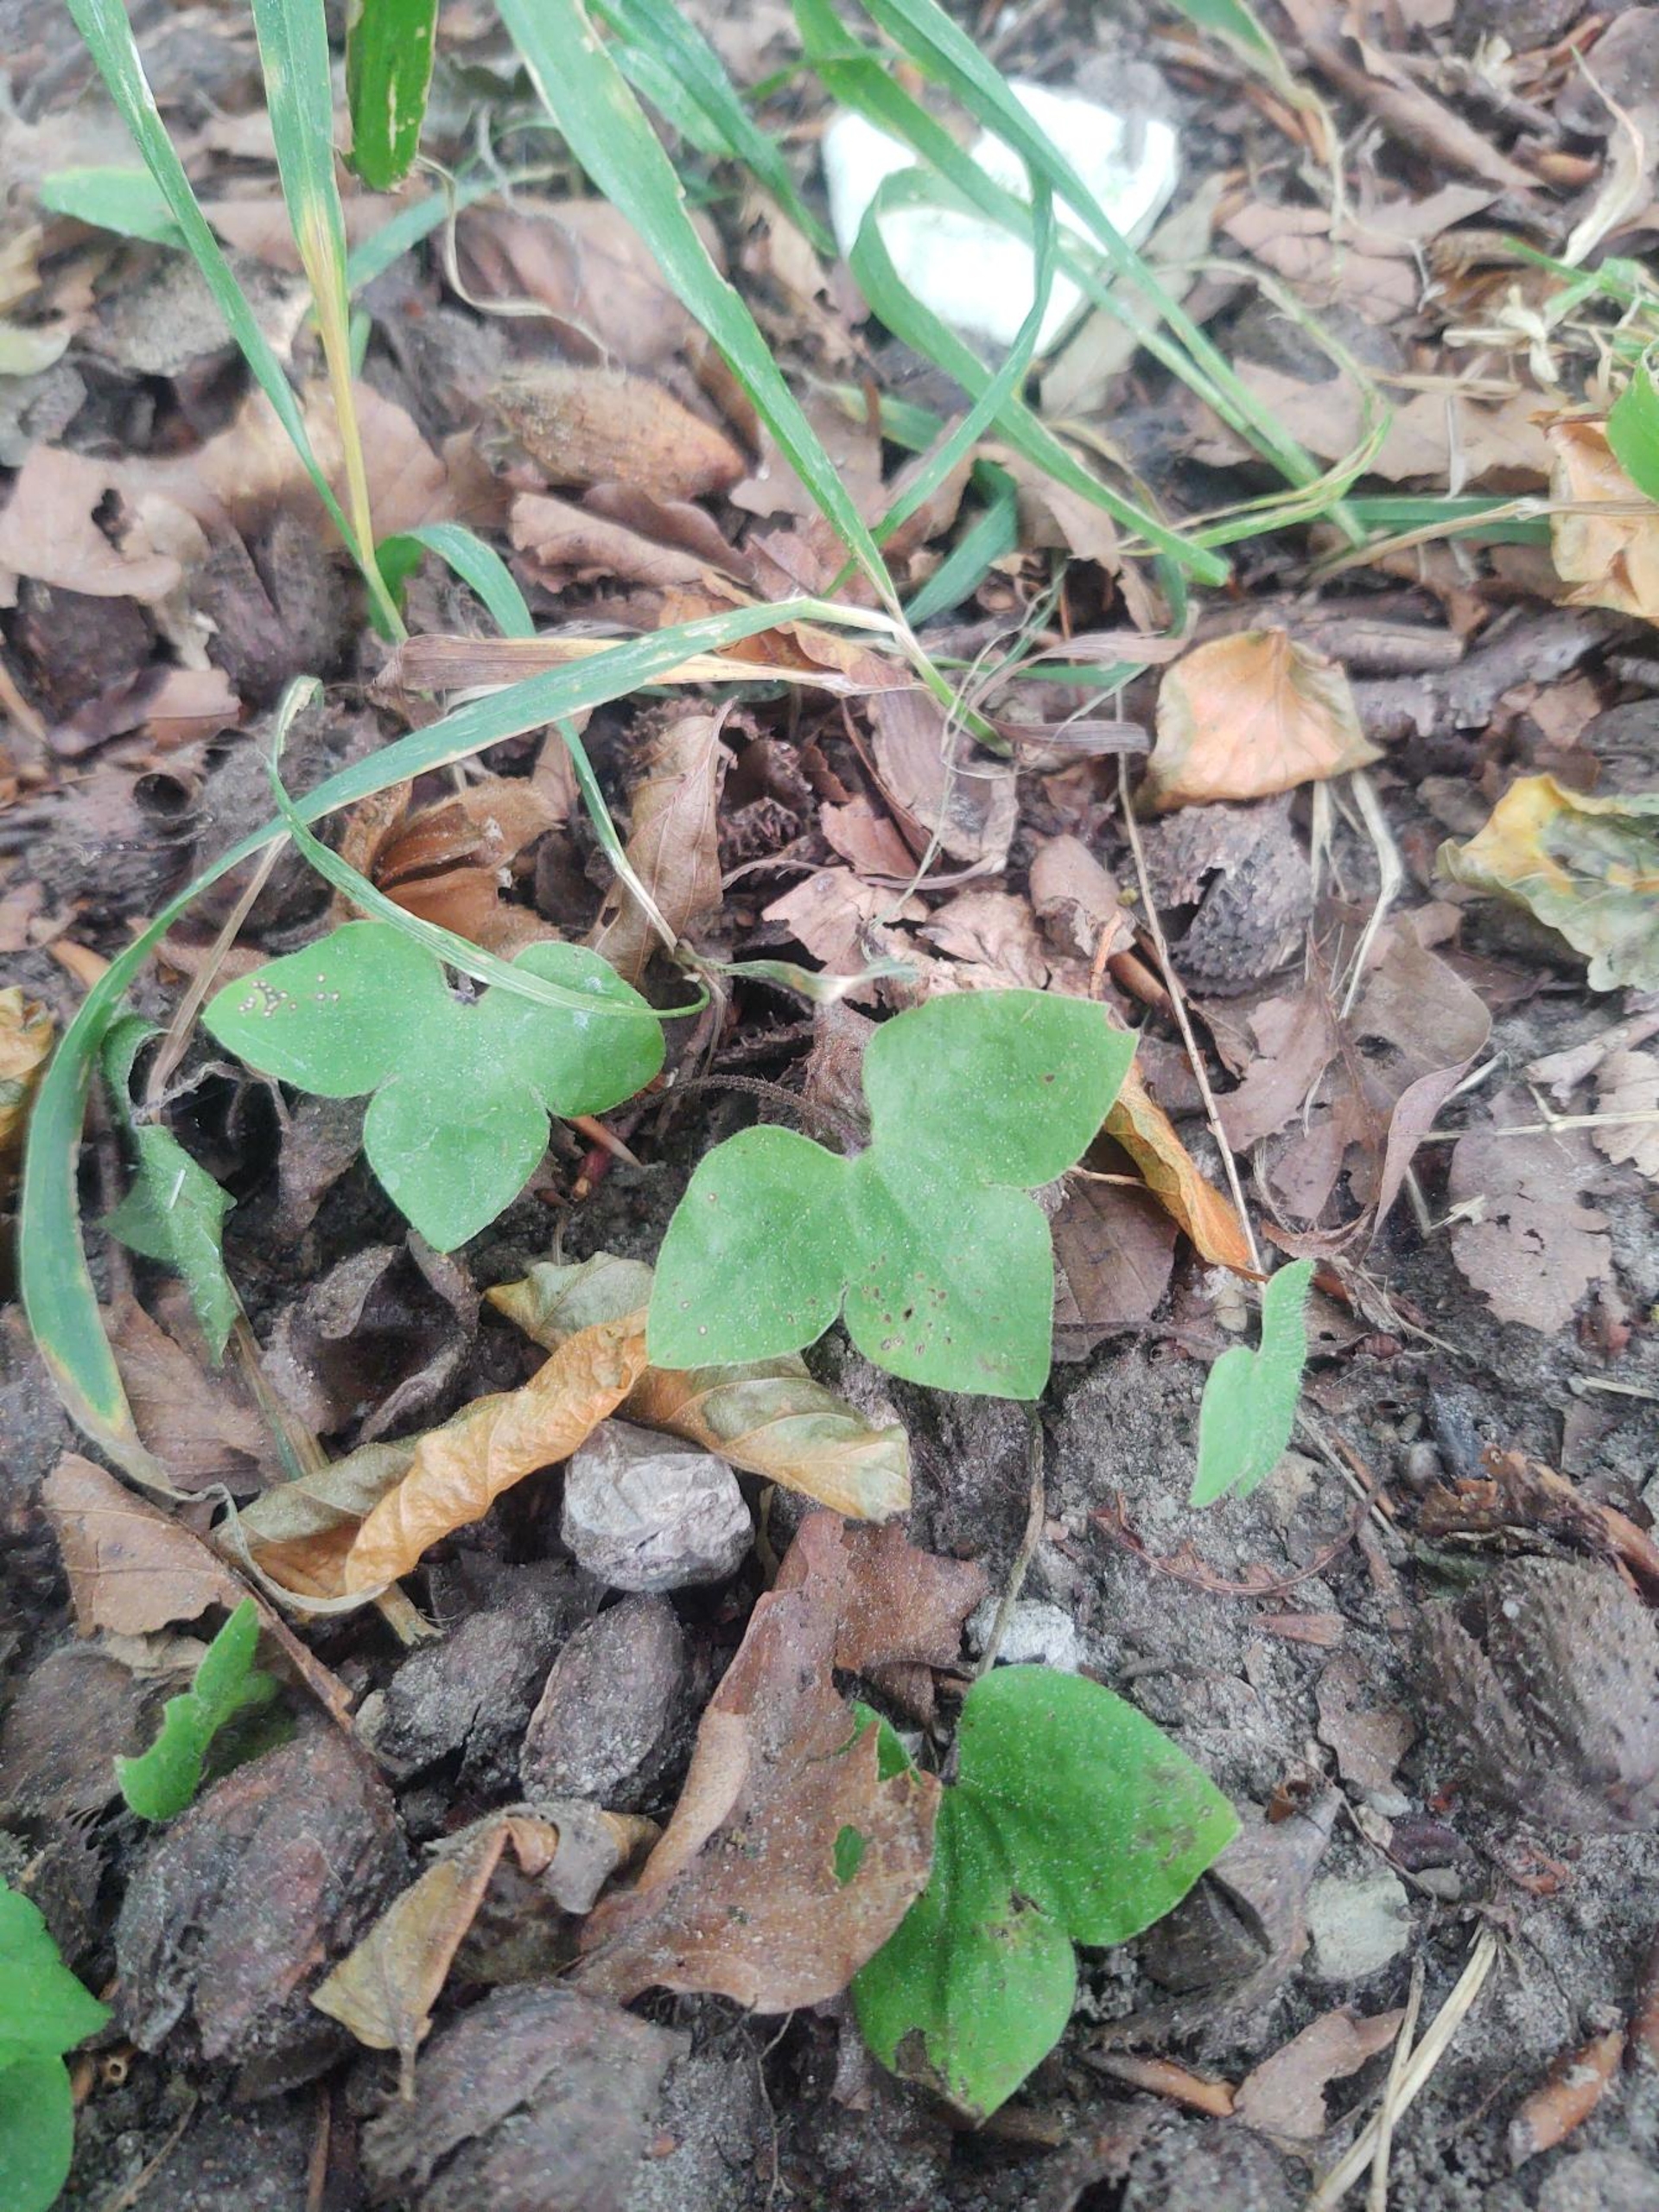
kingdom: Plantae
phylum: Tracheophyta
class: Magnoliopsida
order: Ranunculales
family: Ranunculaceae
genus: Hepatica
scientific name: Hepatica nobilis
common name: Blå anemone
